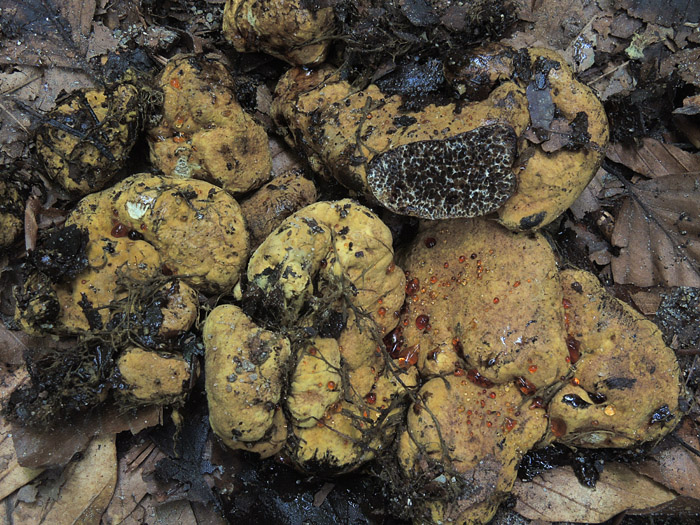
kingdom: Fungi
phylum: Basidiomycota
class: Agaricomycetes
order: Boletales
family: Paxillaceae
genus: Melanogaster
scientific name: Melanogaster broomeanus
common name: broget slimtrøffel
